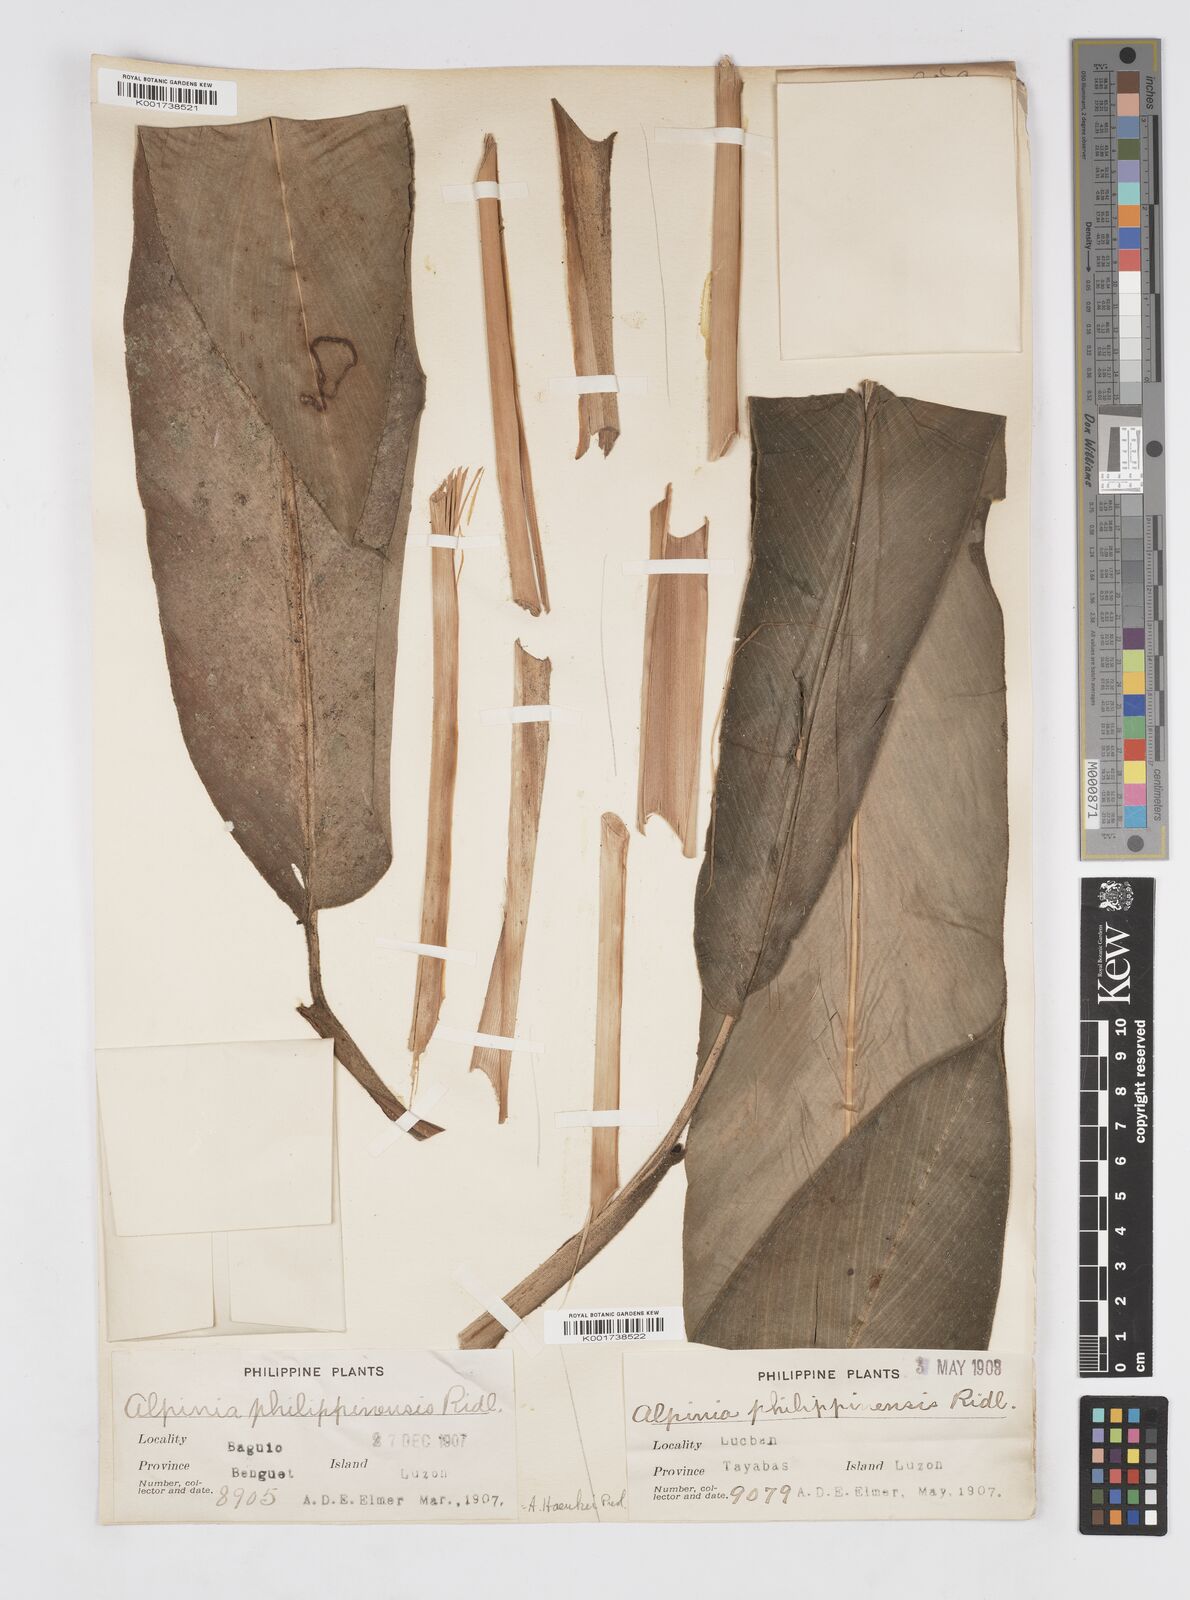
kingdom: Plantae
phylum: Tracheophyta
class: Liliopsida
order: Zingiberales
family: Zingiberaceae
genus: Alpinia
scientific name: Alpinia haenkei
